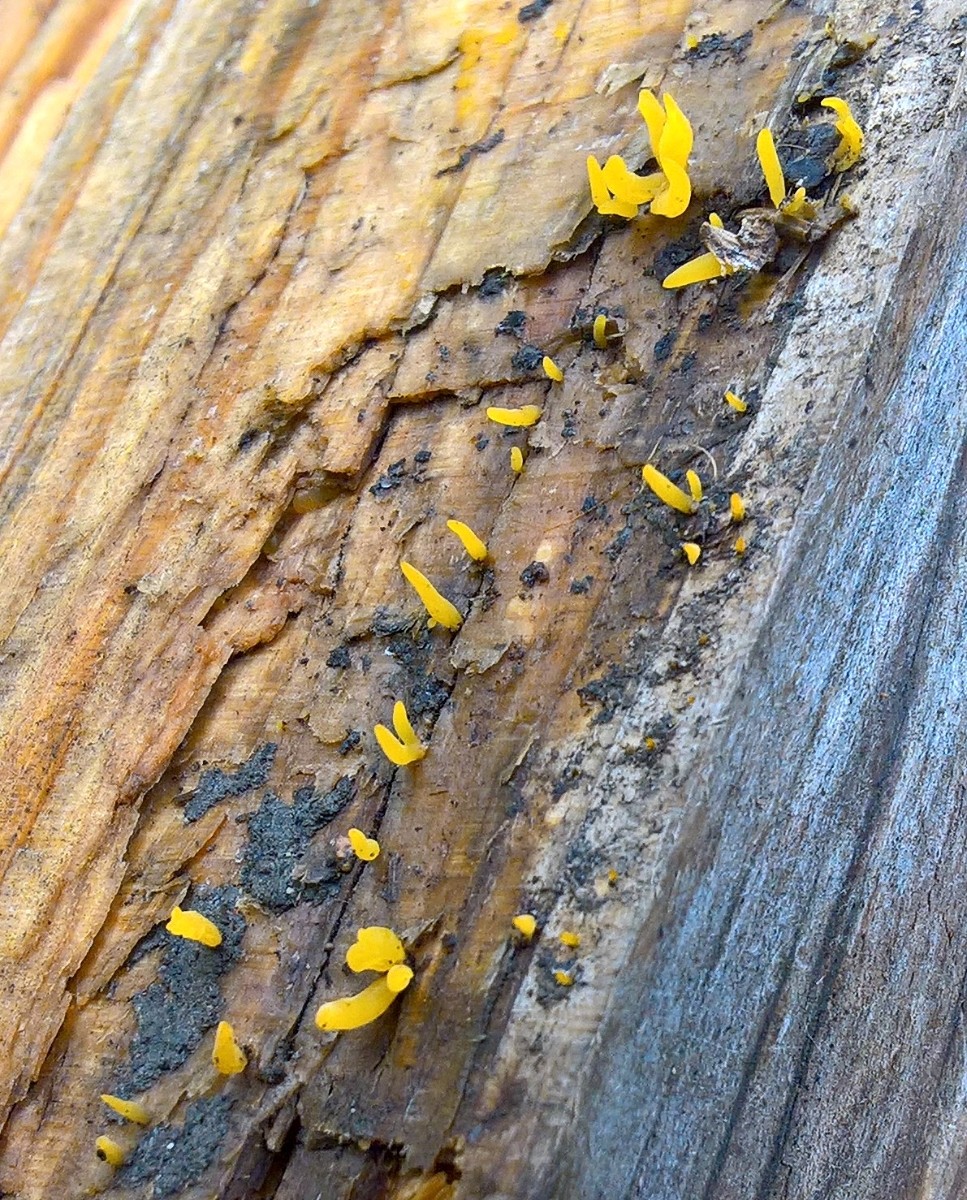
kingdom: Fungi
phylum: Basidiomycota
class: Dacrymycetes
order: Dacrymycetales
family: Dacrymycetaceae
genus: Calocera
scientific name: Calocera cornea
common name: liden guldgaffel
